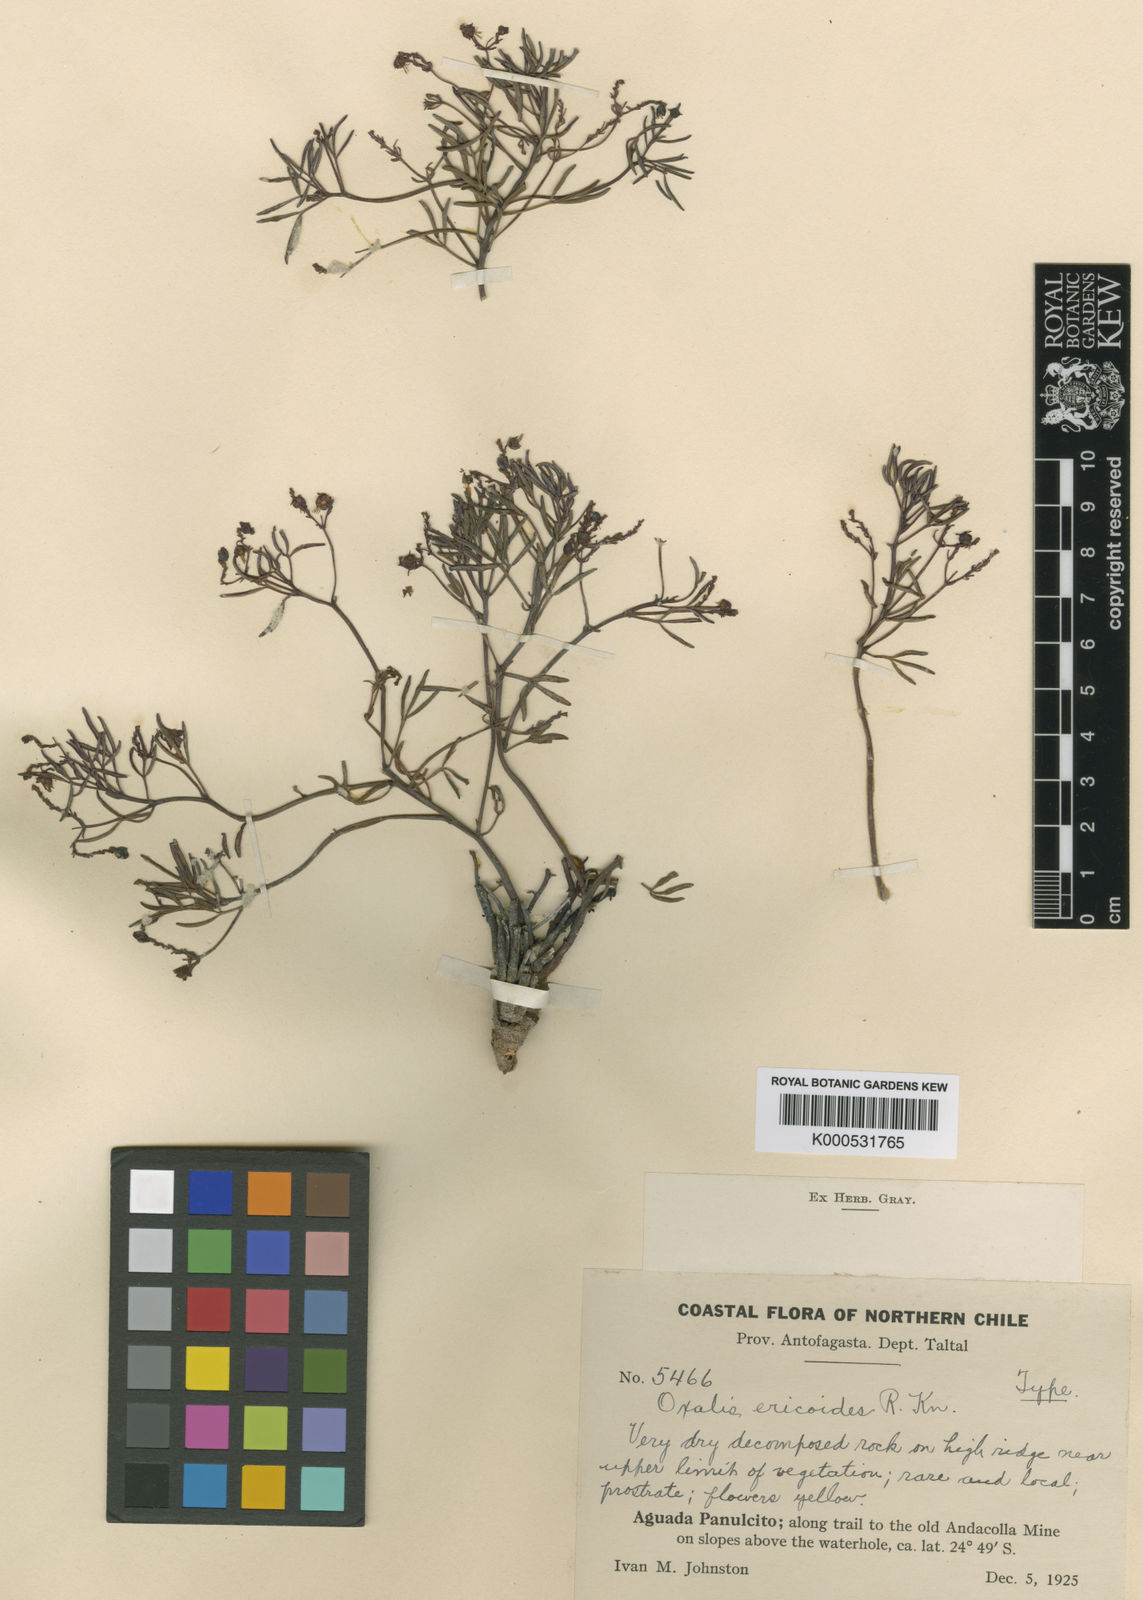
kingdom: Plantae
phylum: Tracheophyta
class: Magnoliopsida
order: Oxalidales
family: Oxalidaceae
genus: Oxalis
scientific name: Oxalis ericoides
